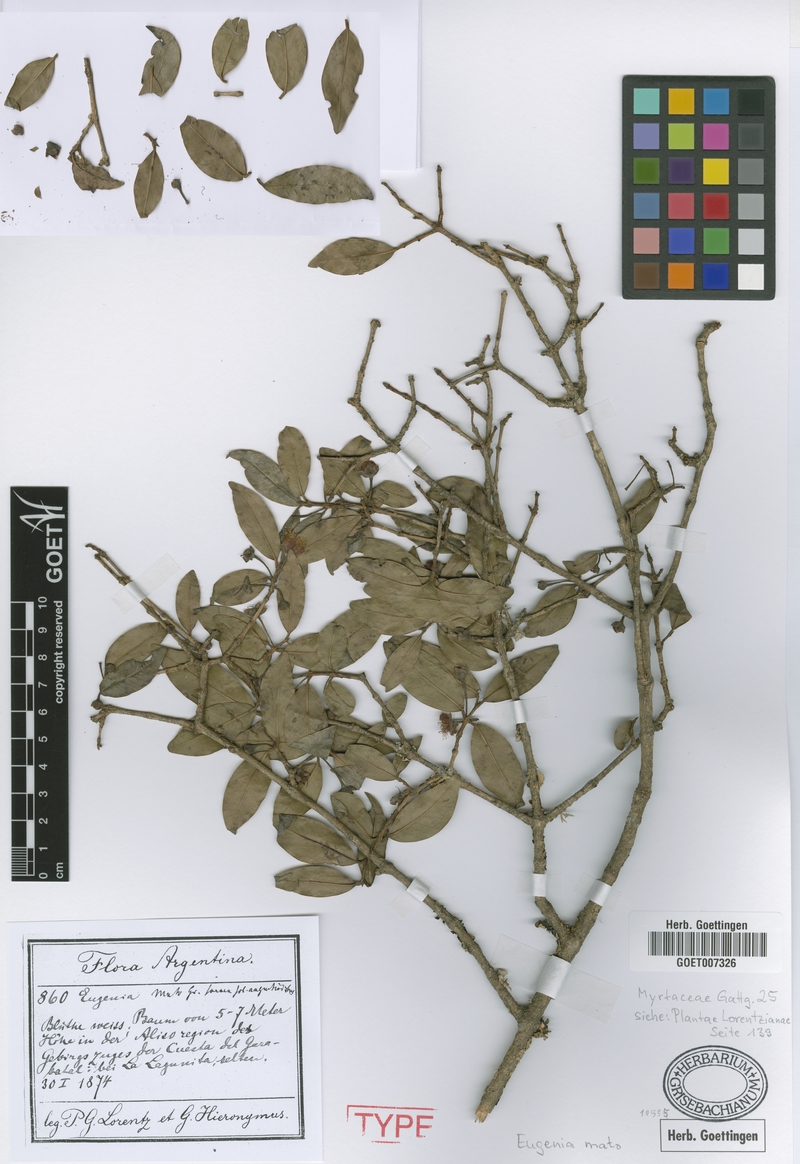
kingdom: Plantae
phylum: Tracheophyta
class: Magnoliopsida
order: Myrtales
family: Myrtaceae
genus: Myrcianthes
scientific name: Myrcianthes mato
